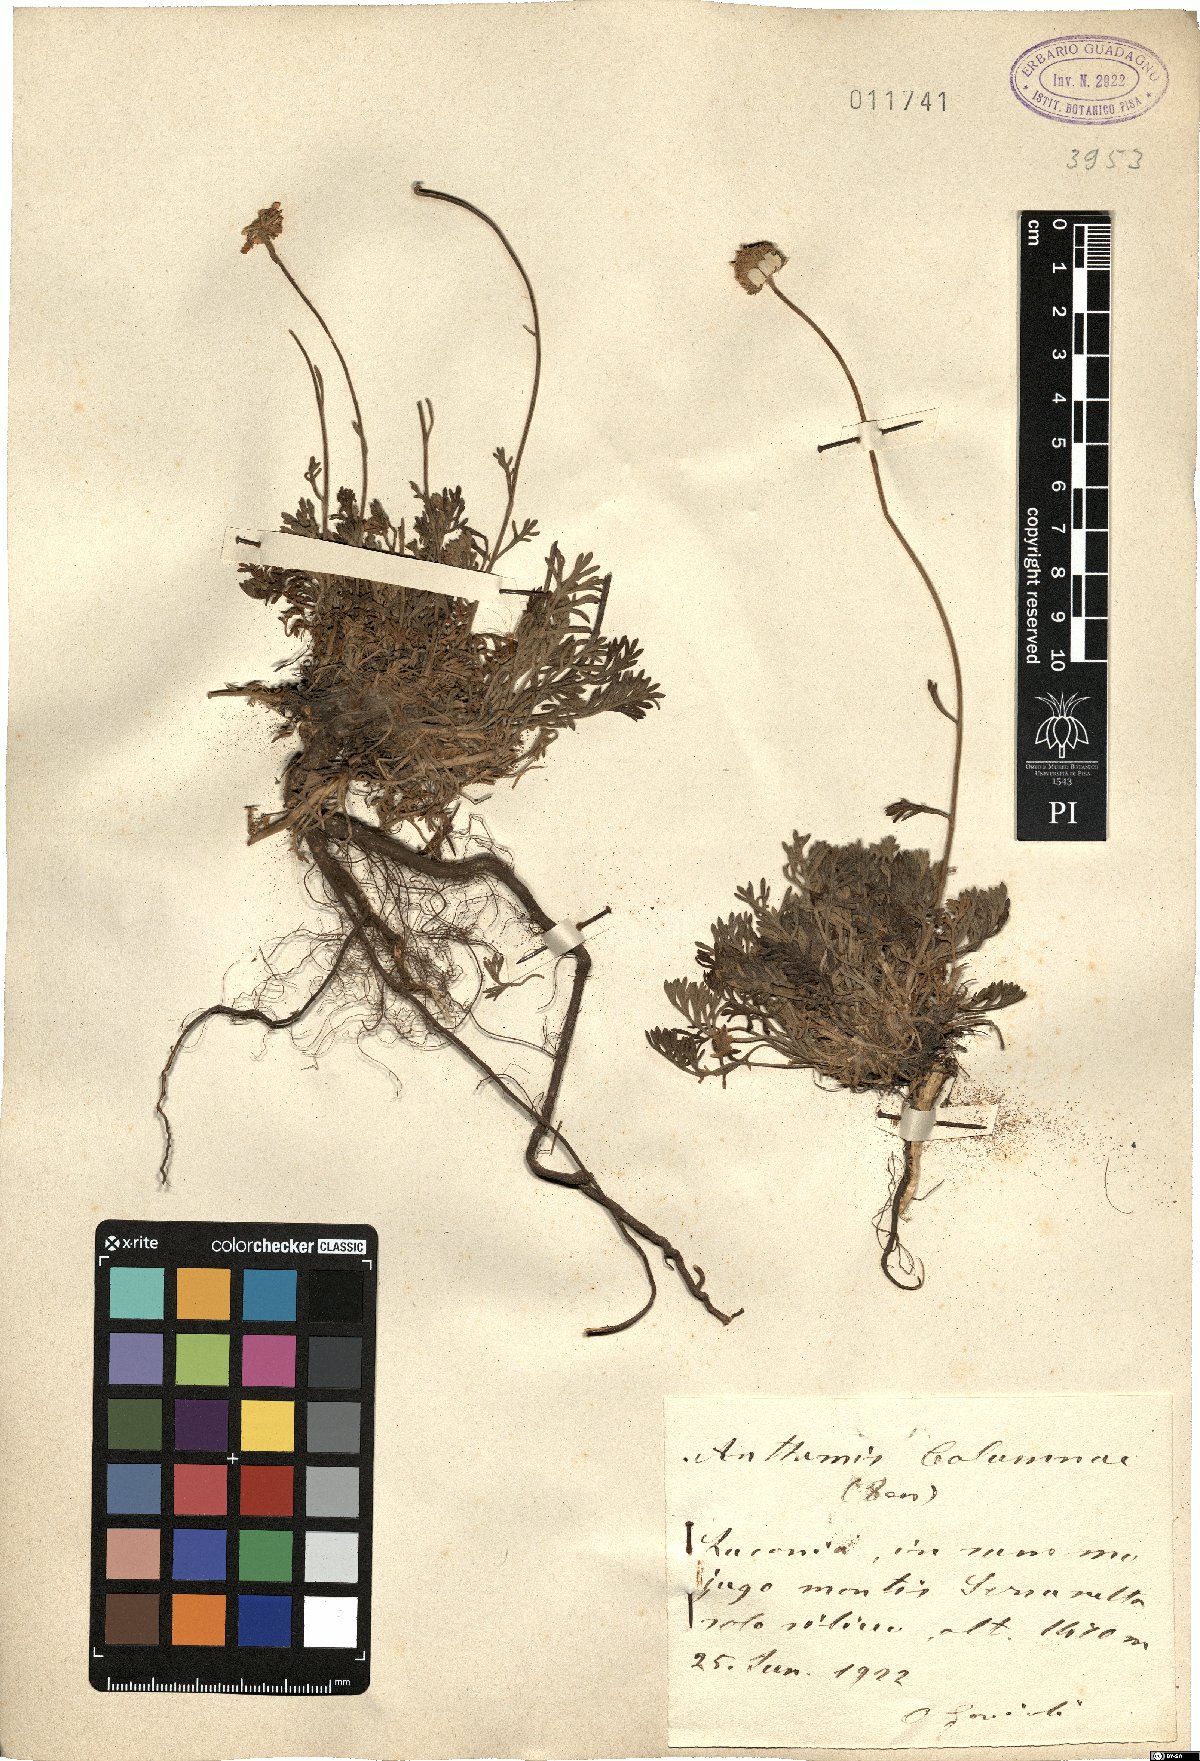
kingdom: Plantae
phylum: Tracheophyta
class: Magnoliopsida
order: Asterales
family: Asteraceae
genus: Anthemis
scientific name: Anthemis cretica
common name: Mountain dog-daisy
